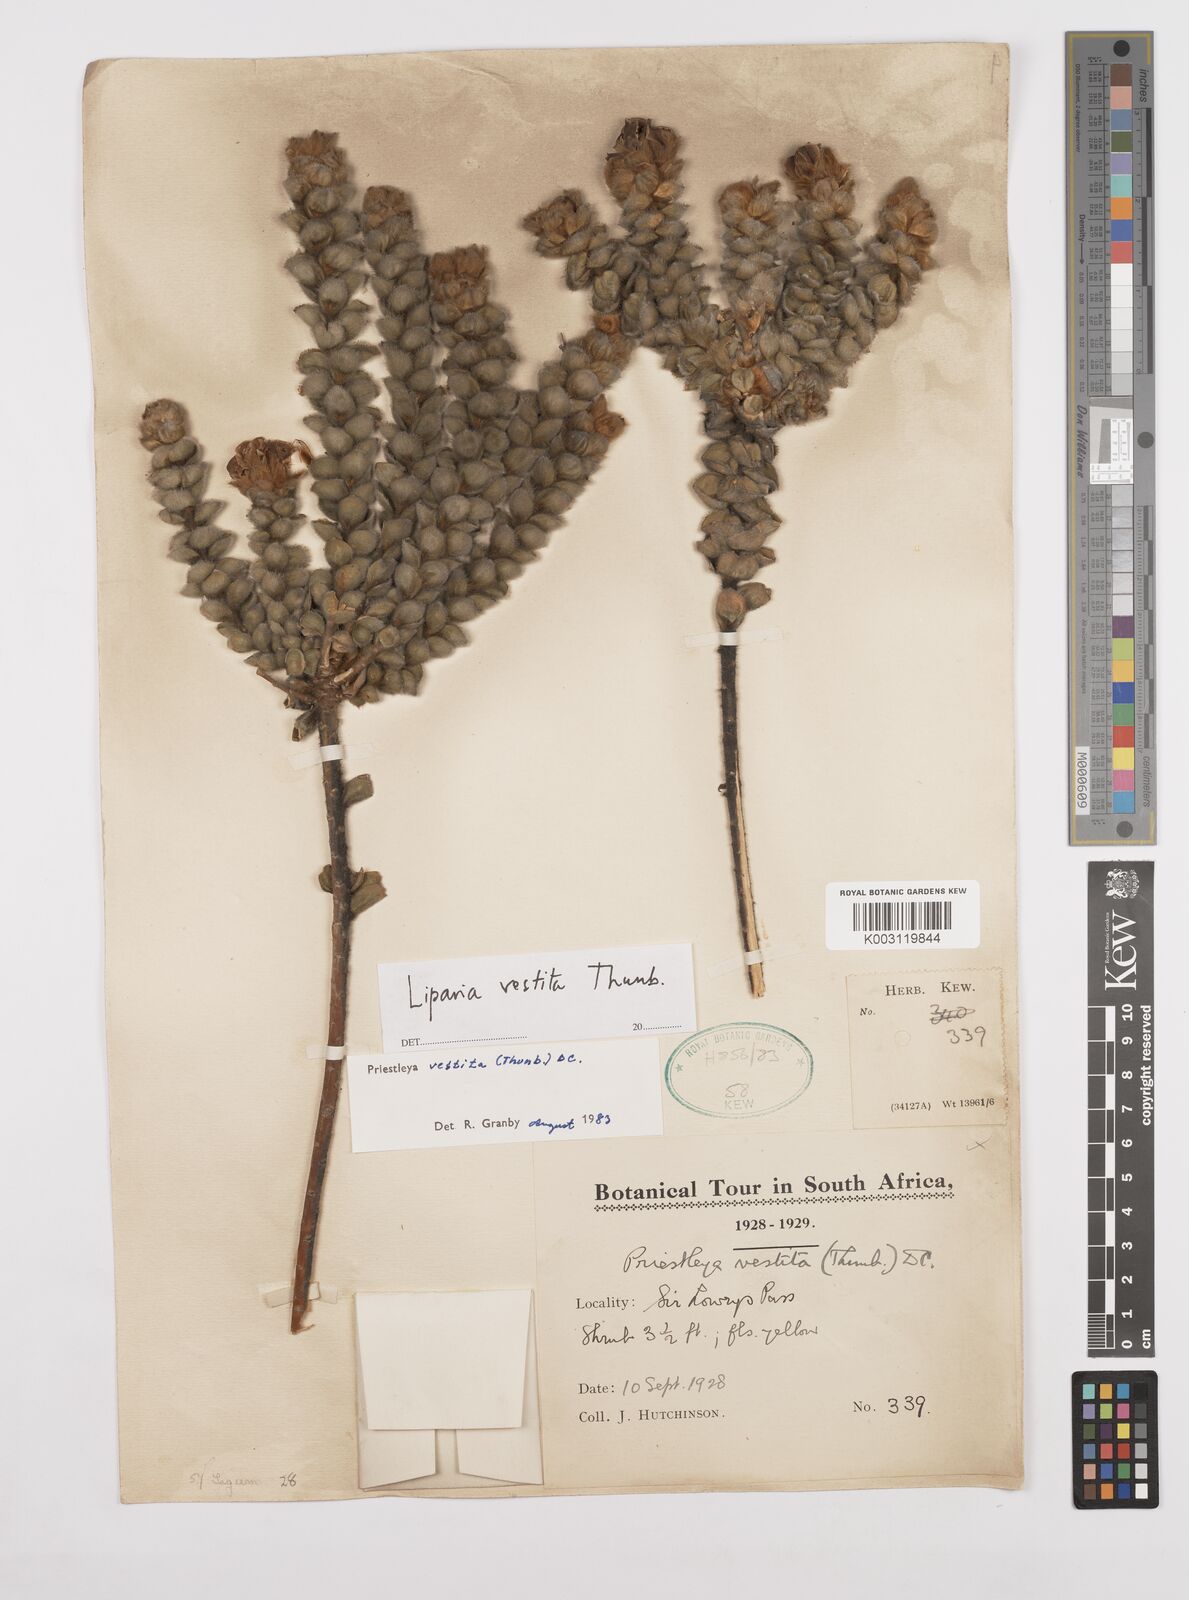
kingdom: Plantae
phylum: Tracheophyta
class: Magnoliopsida
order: Fabales
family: Fabaceae
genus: Liparia
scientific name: Liparia vestita
